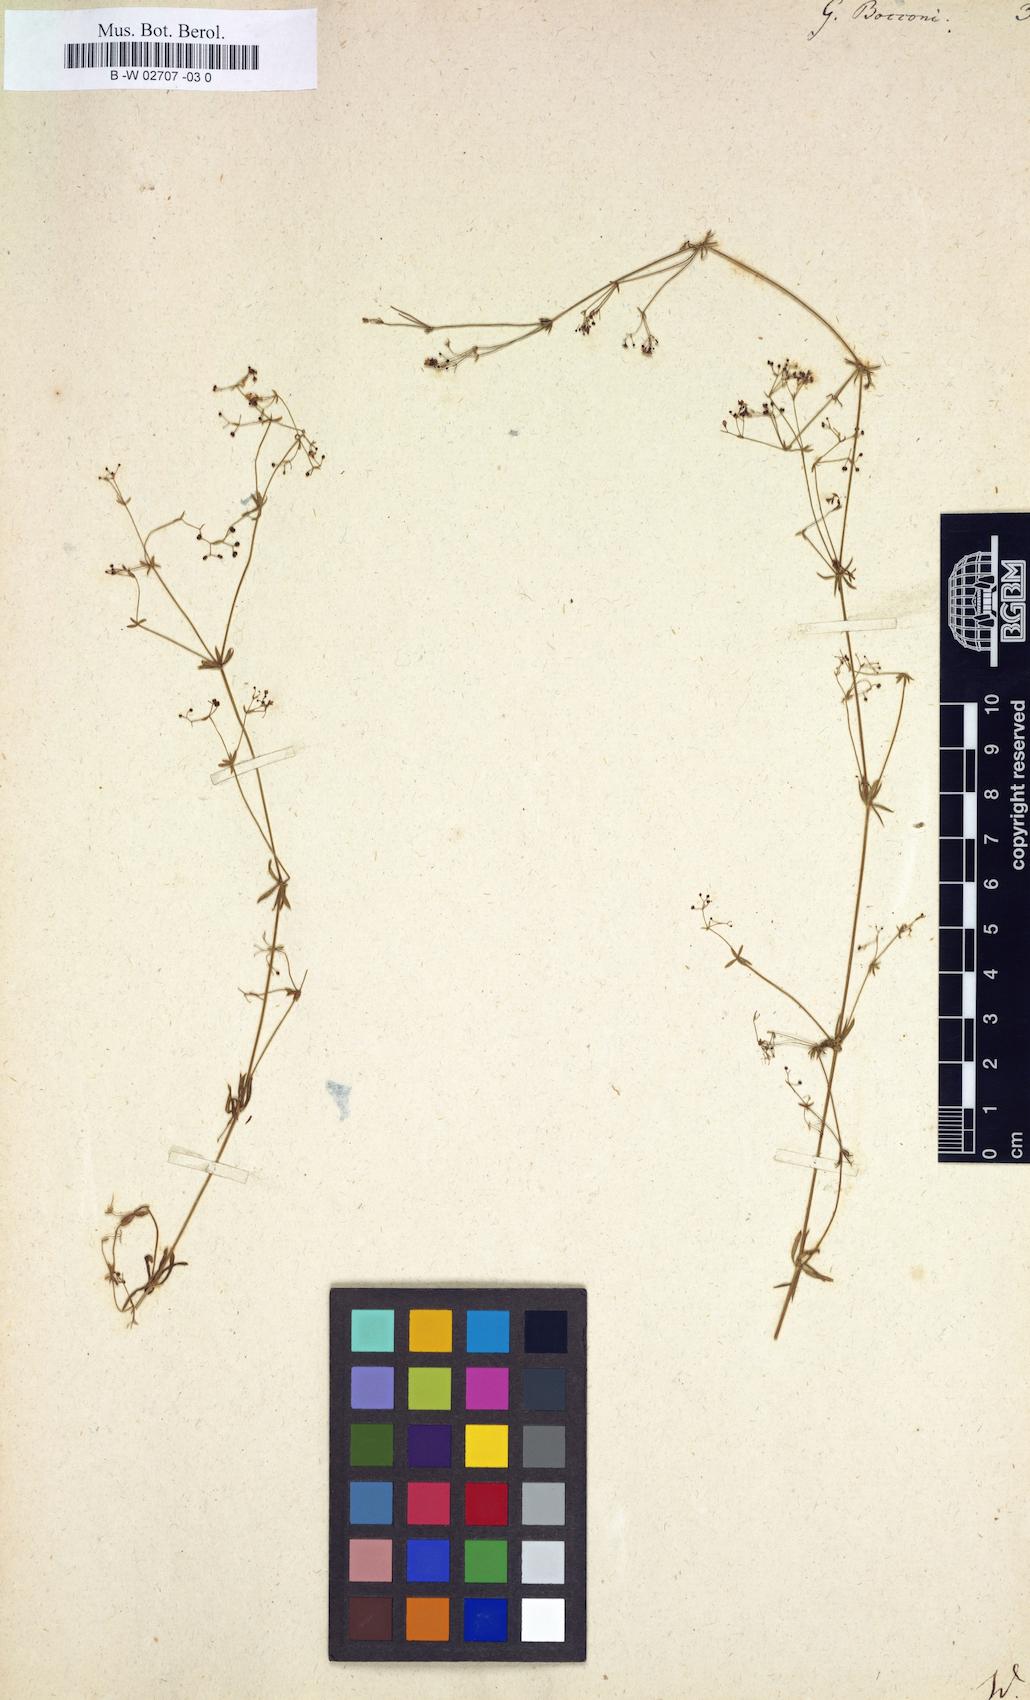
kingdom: Plantae
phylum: Tracheophyta
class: Magnoliopsida
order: Gentianales
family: Rubiaceae
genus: Galium
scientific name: Galium
